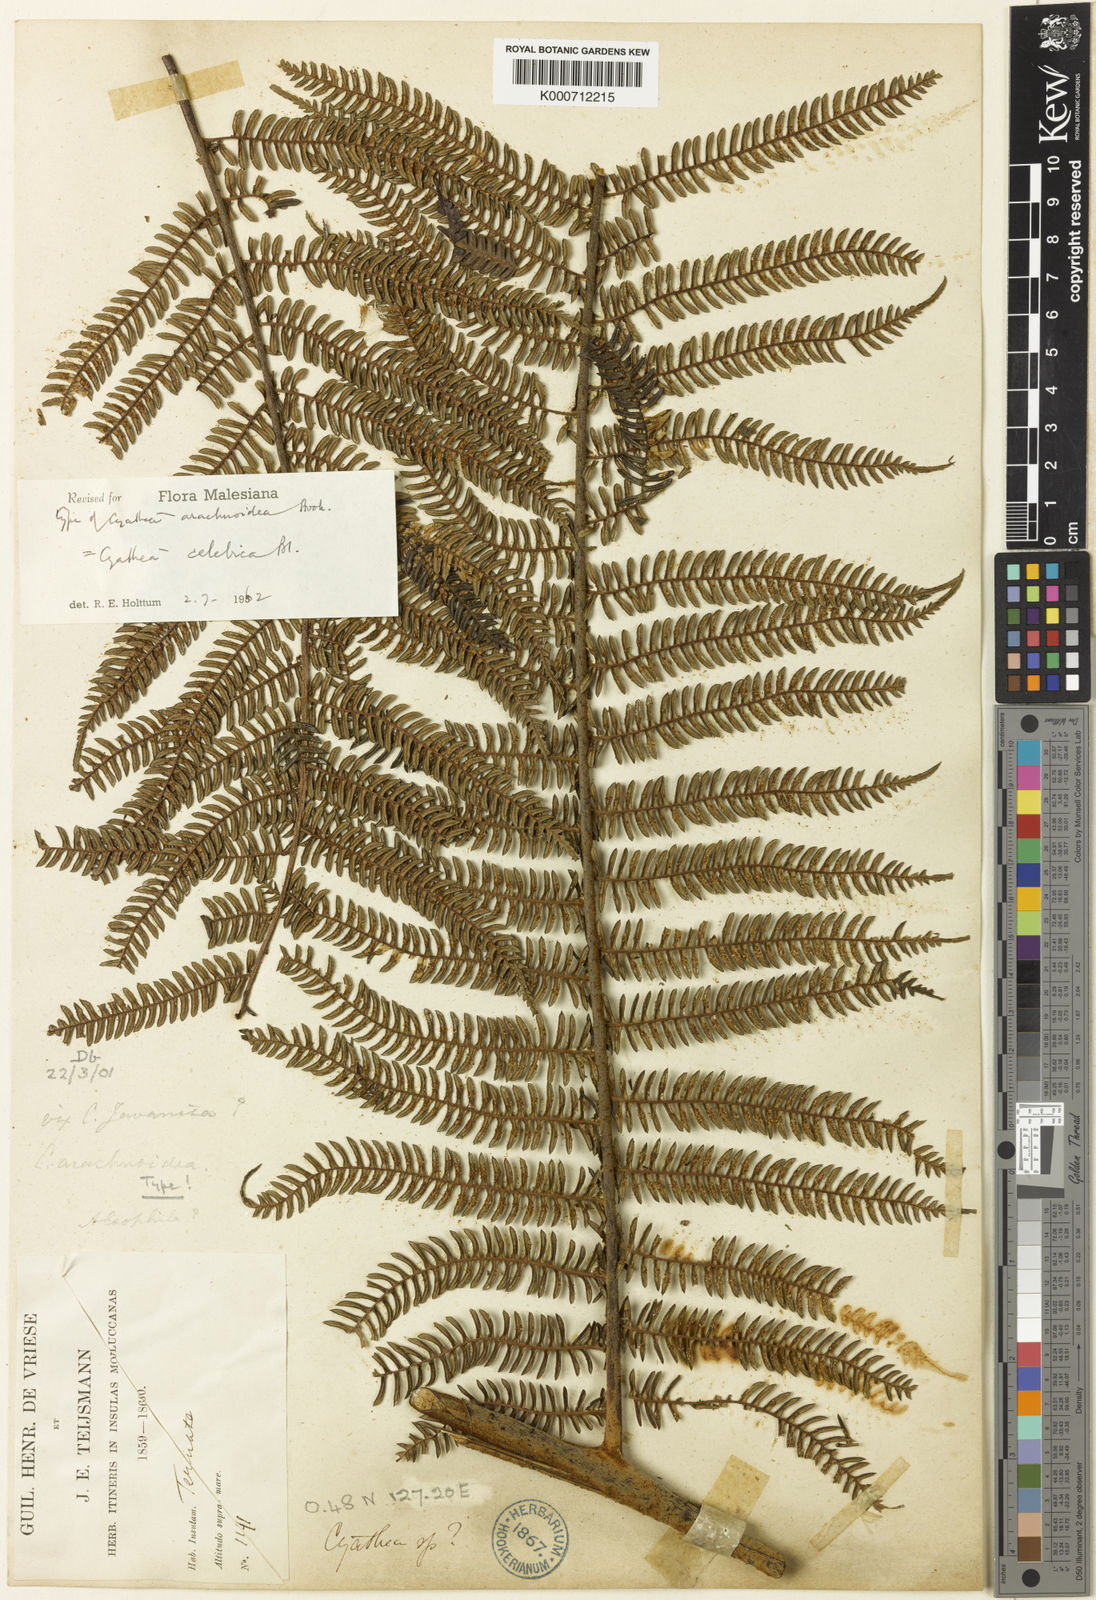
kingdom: Plantae
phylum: Tracheophyta
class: Polypodiopsida
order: Cyatheales
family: Cyatheaceae
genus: Sphaeropteris
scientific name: Sphaeropteris celebica
